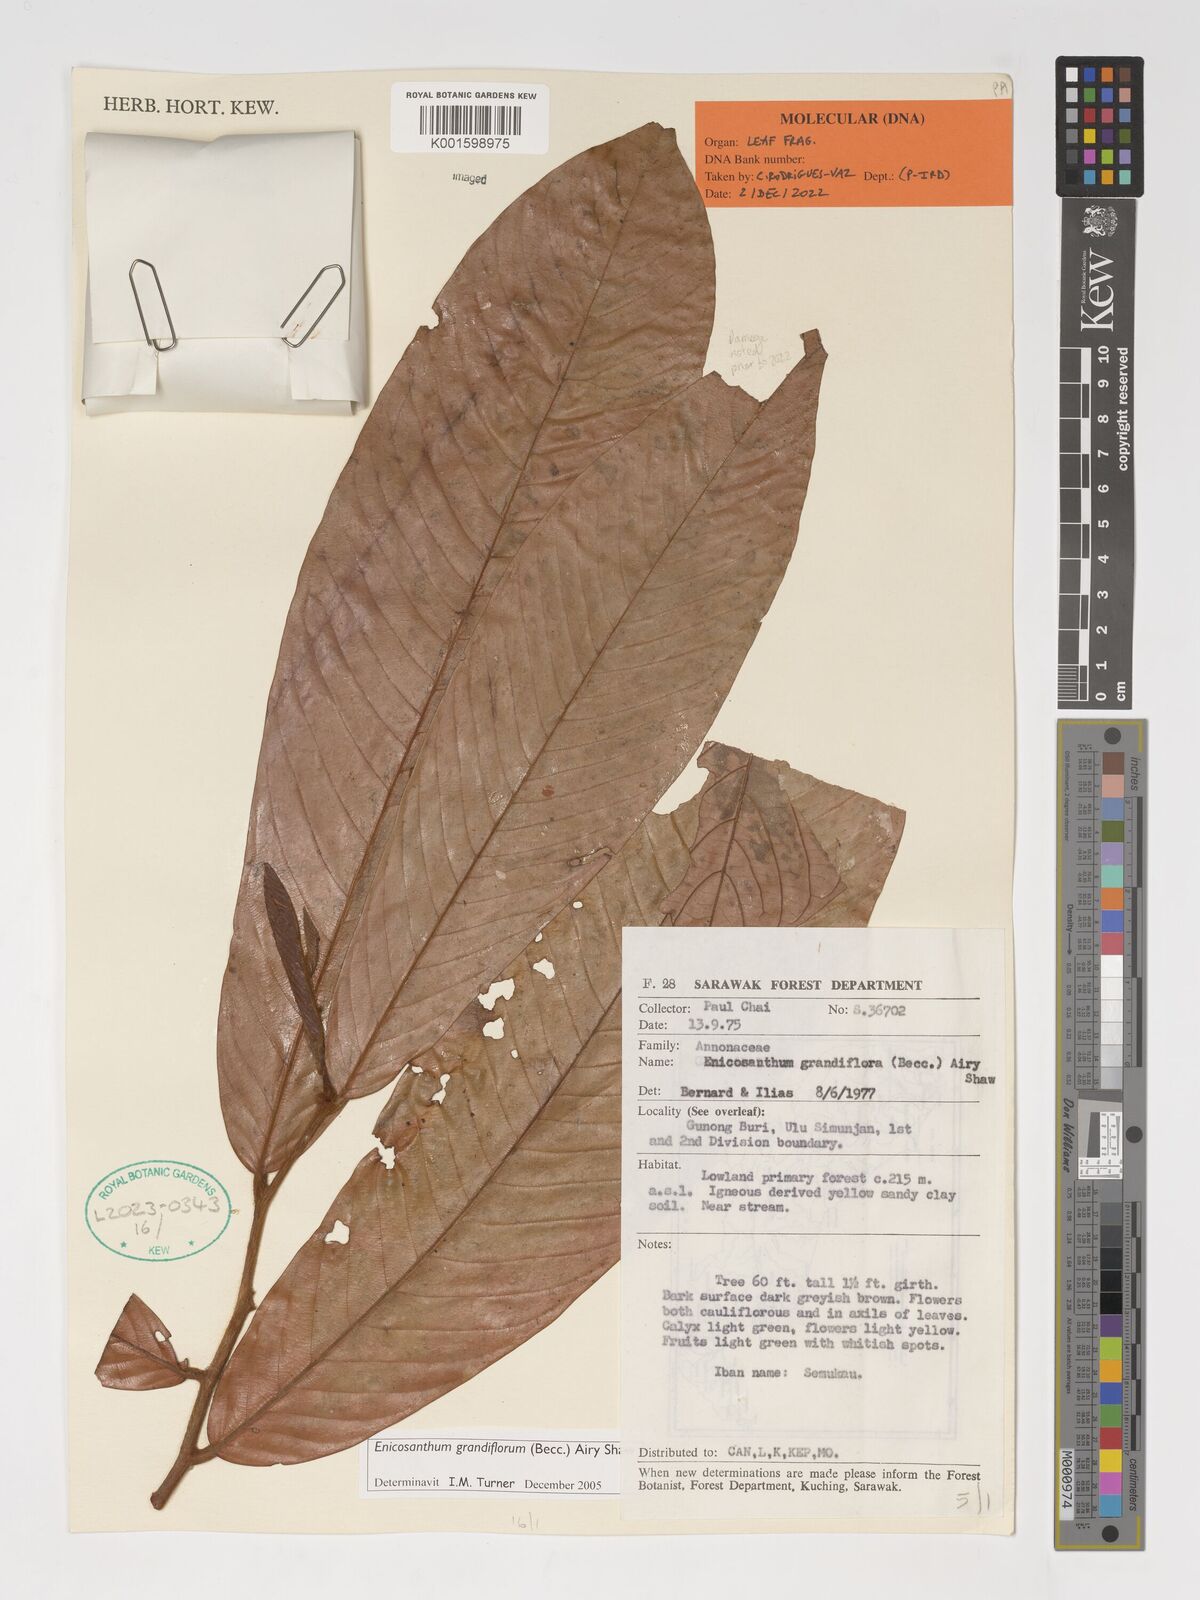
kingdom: Plantae
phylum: Tracheophyta
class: Magnoliopsida
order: Magnoliales
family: Annonaceae
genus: Enicosanthum
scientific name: Enicosanthum grandiflorum
